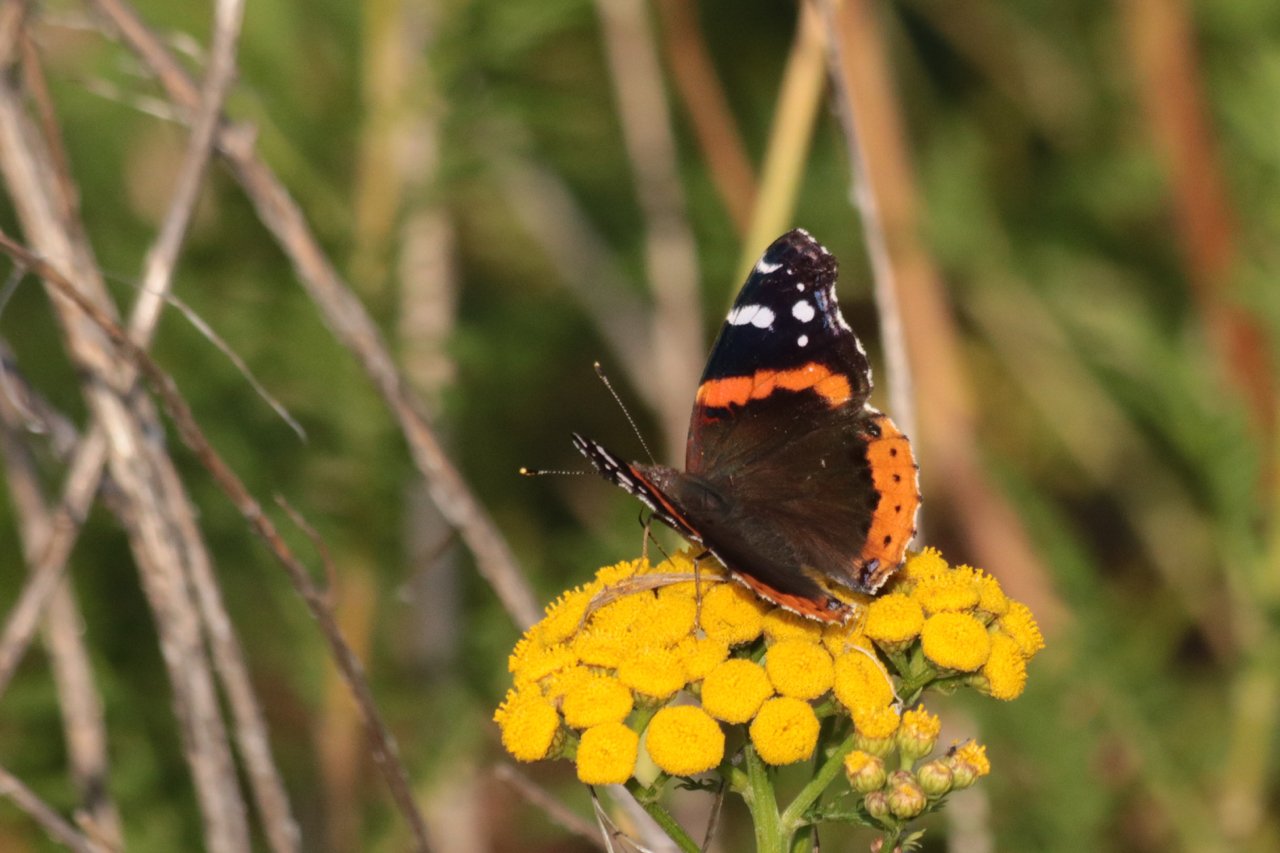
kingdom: Animalia
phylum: Arthropoda
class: Insecta
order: Lepidoptera
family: Nymphalidae
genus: Vanessa
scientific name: Vanessa atalanta
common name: Red Admiral
